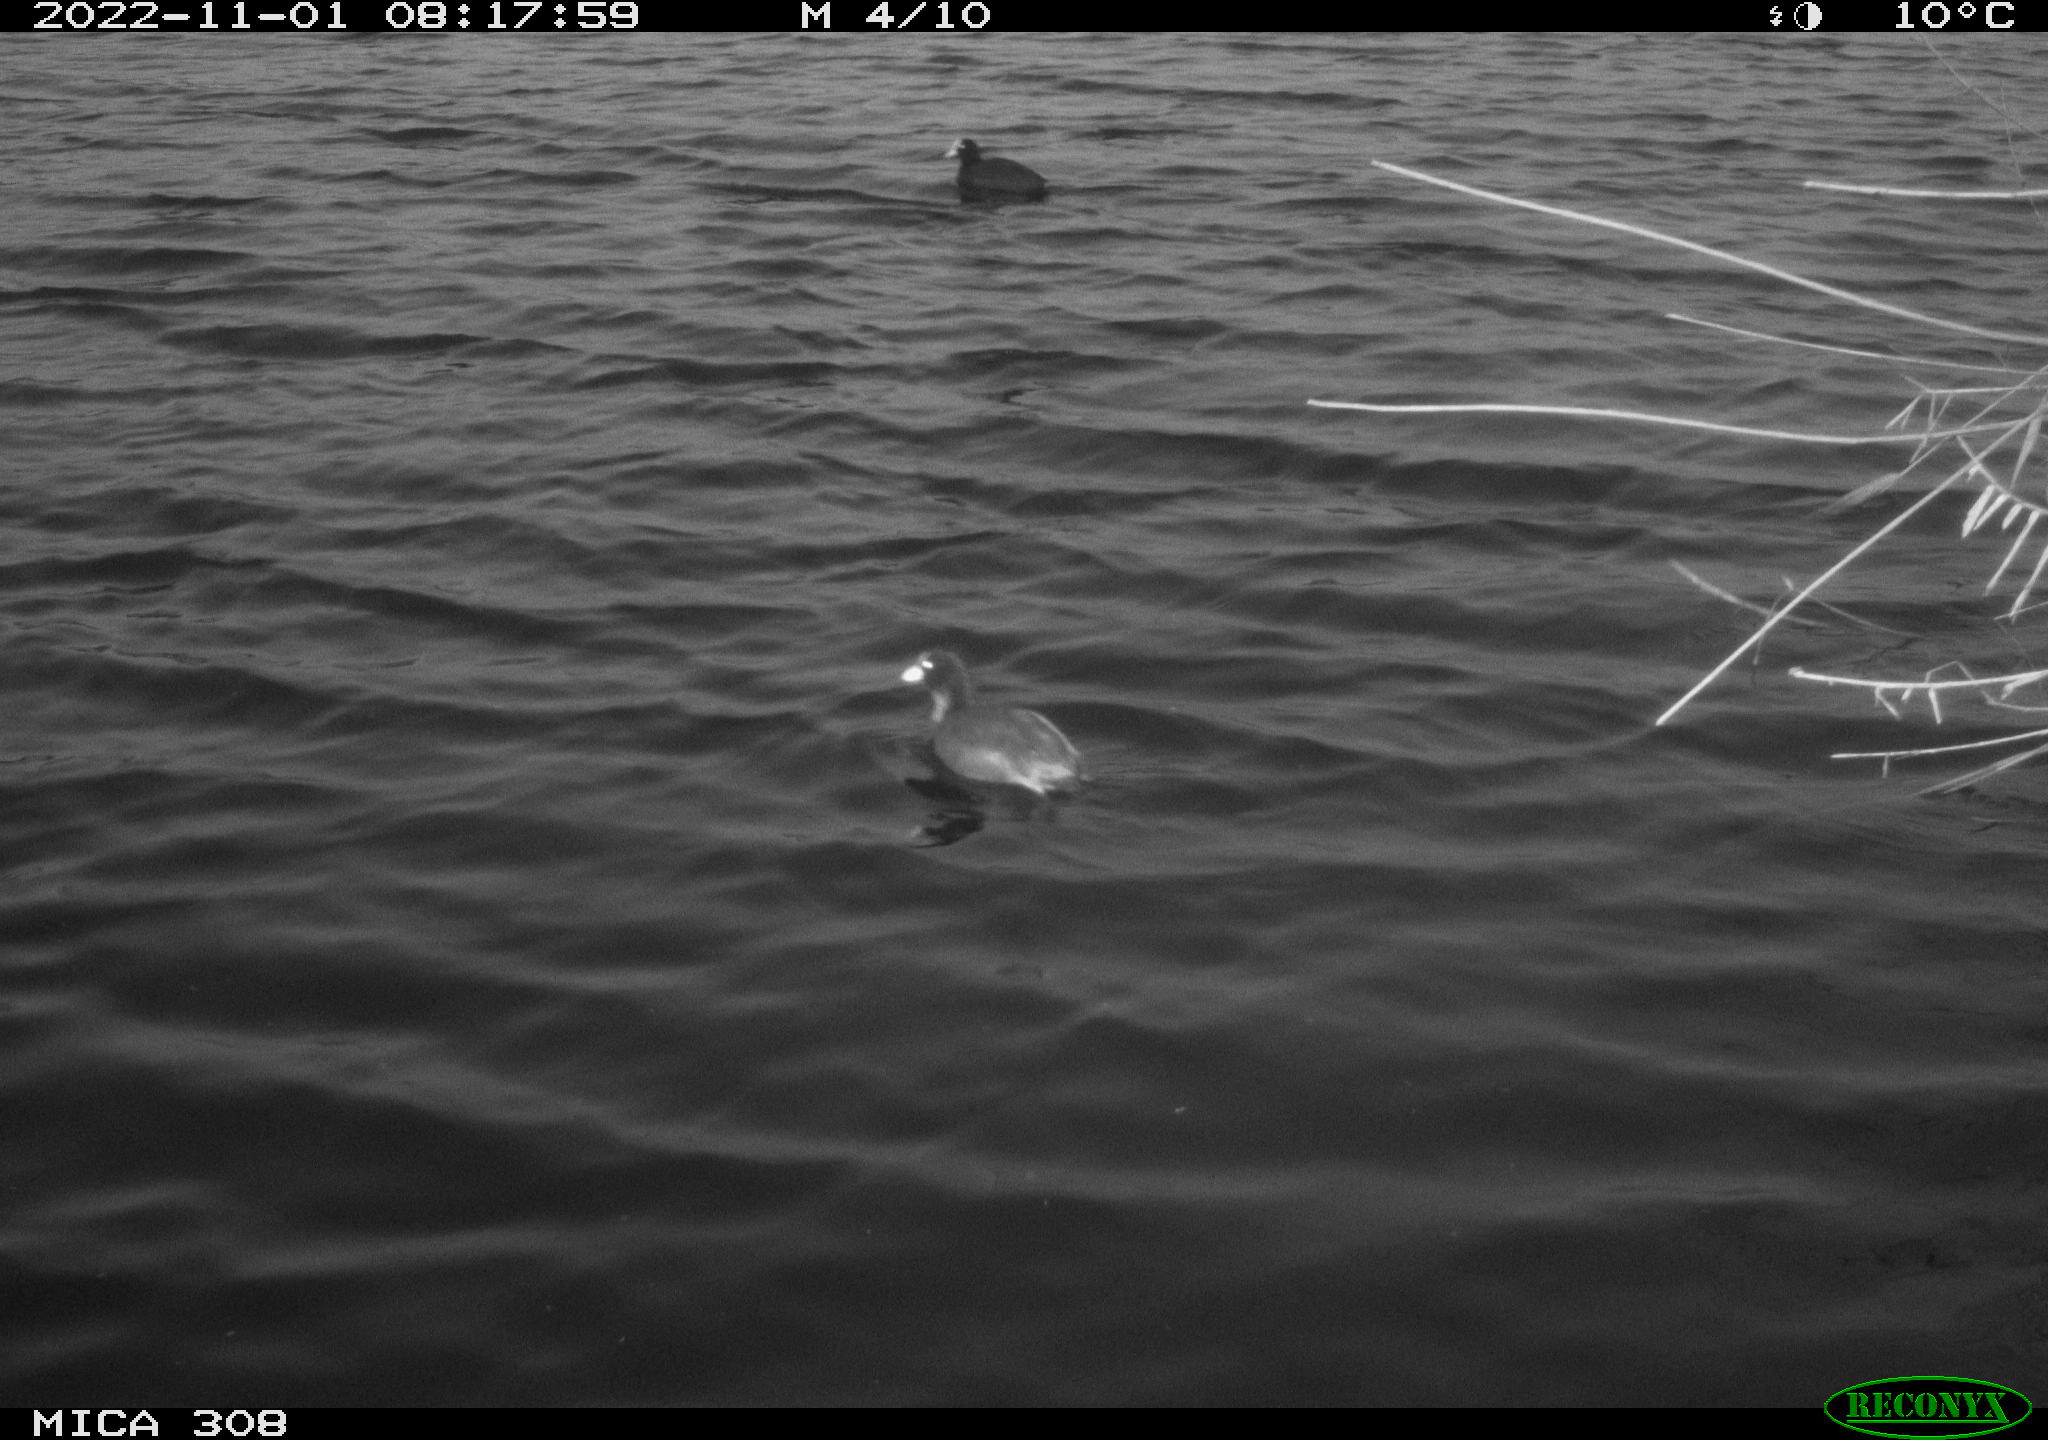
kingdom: Animalia
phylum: Chordata
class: Aves
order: Anseriformes
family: Anatidae
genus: Anas
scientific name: Anas
